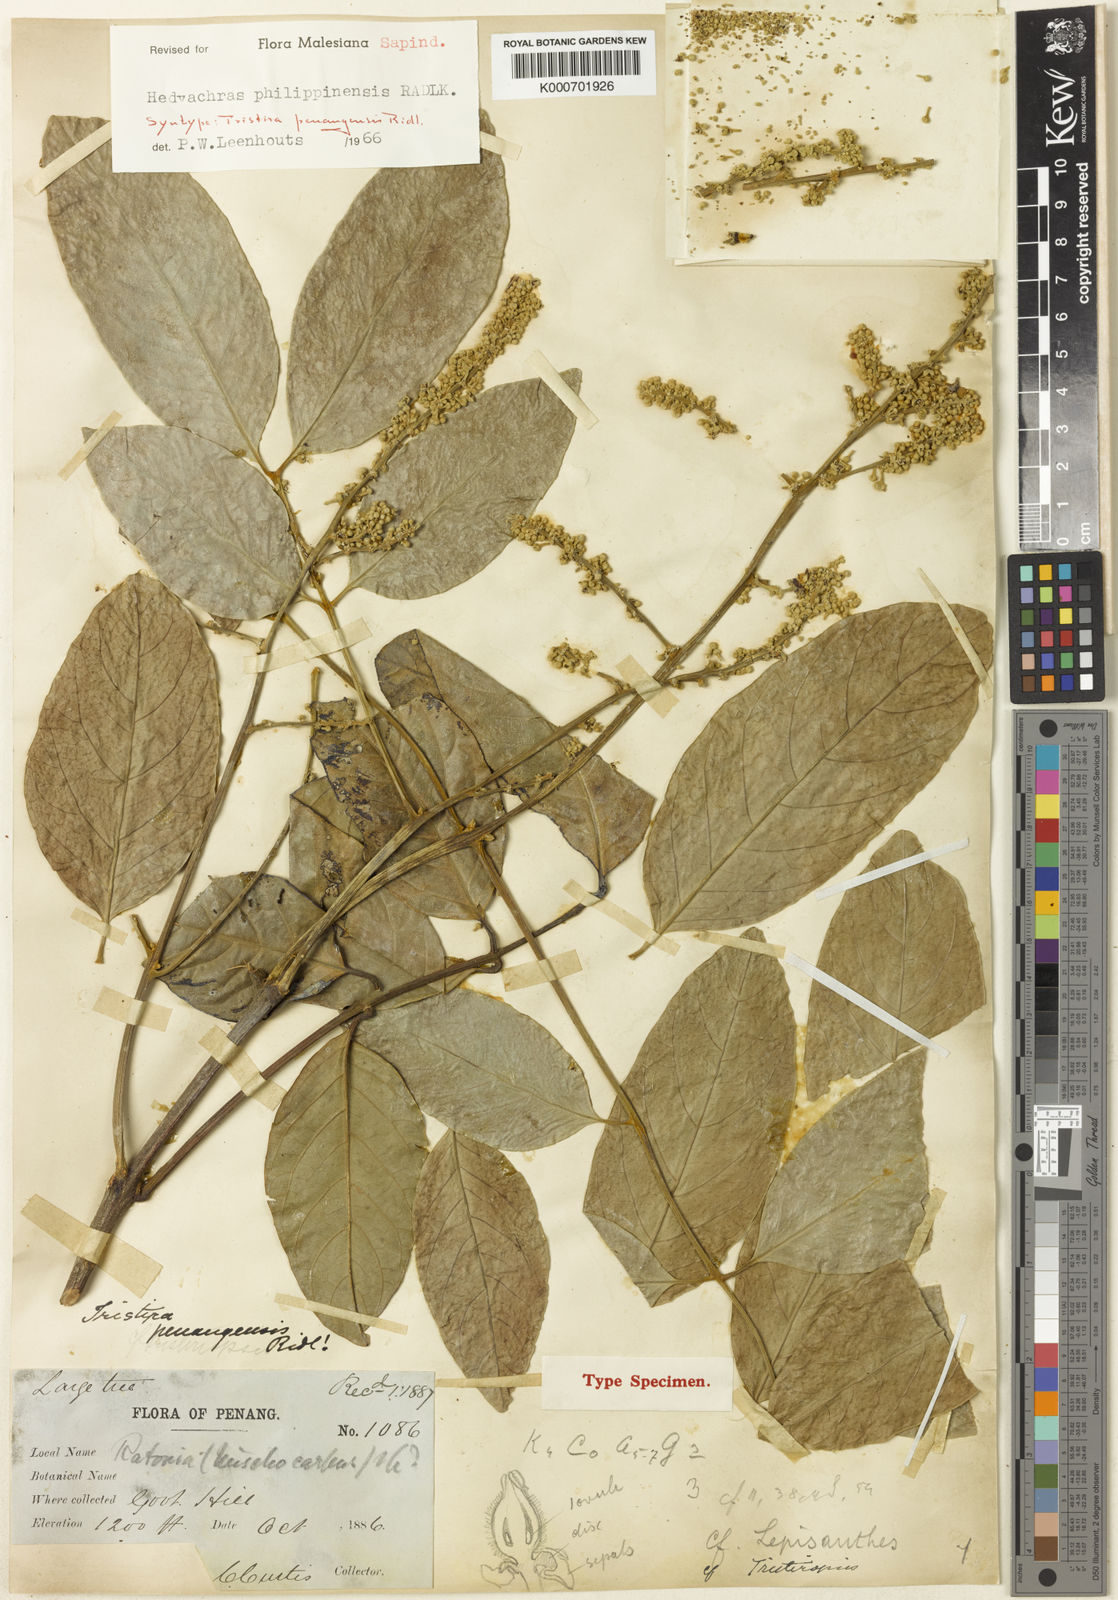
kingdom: Plantae
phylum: Tracheophyta
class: Magnoliopsida
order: Sapindales
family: Sapindaceae
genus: Glenniea
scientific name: Glenniea philippinensis
